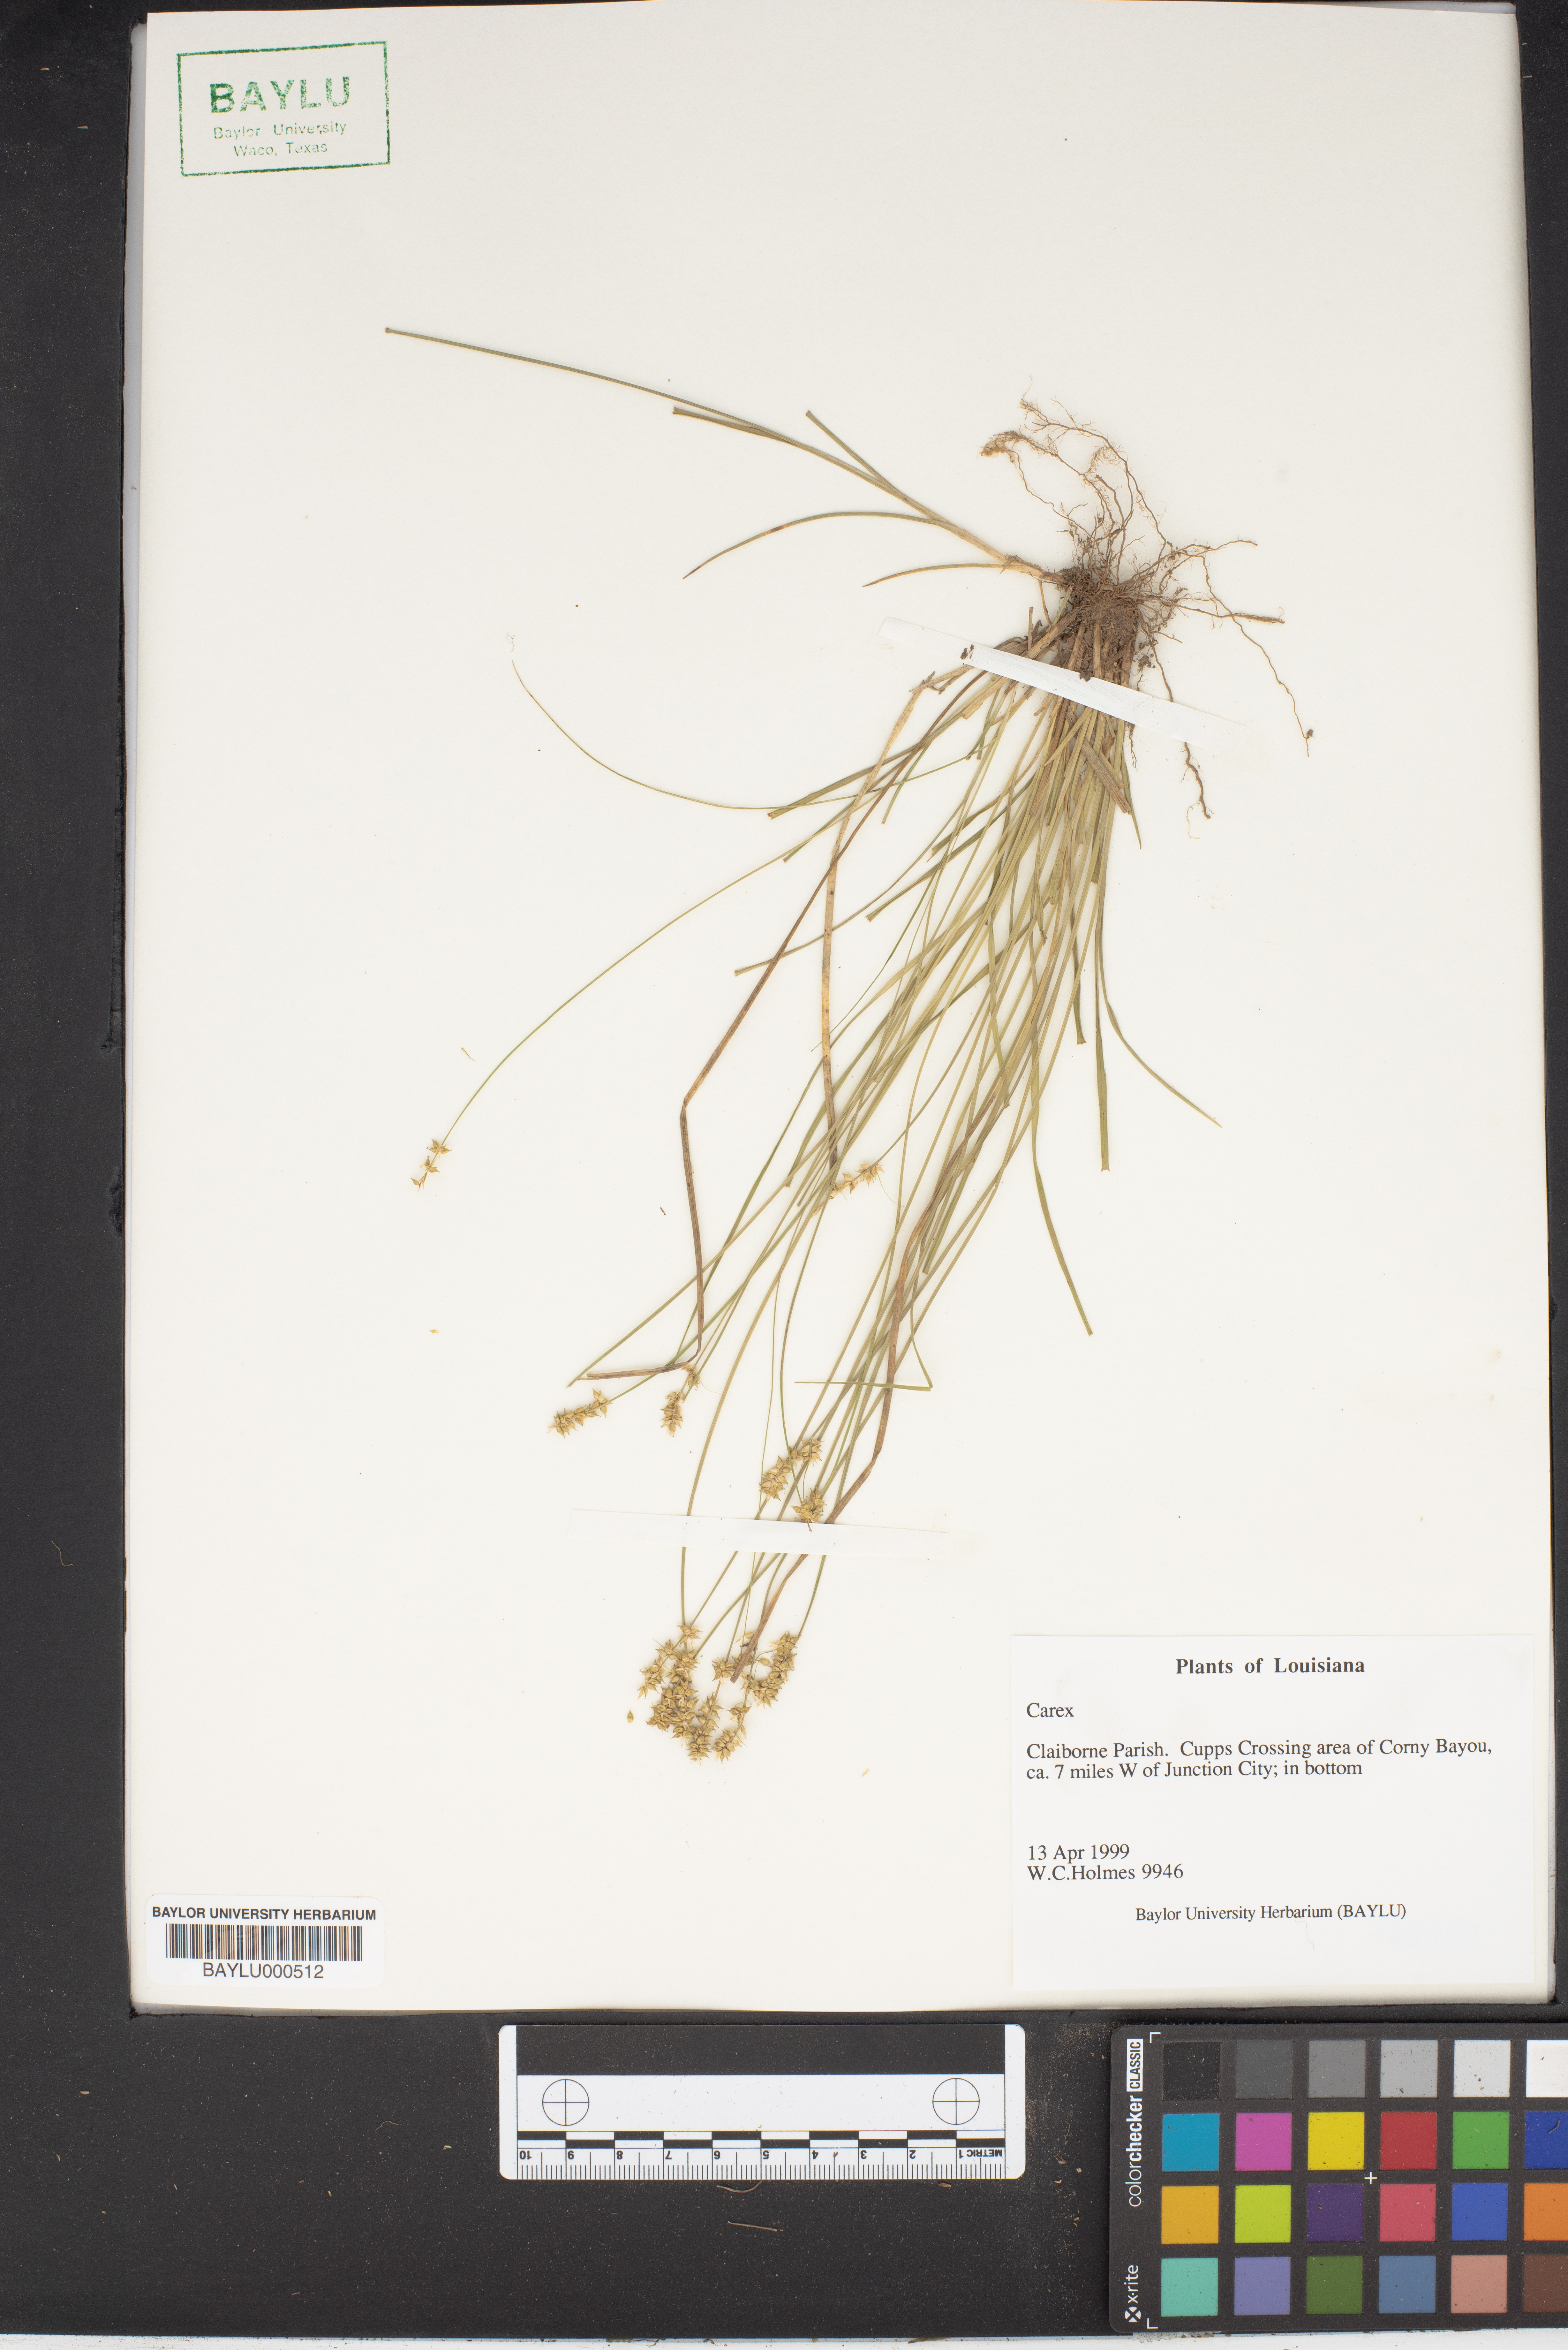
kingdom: Plantae
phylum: Tracheophyta
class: Liliopsida
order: Poales
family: Cyperaceae
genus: Carex
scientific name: Carex
